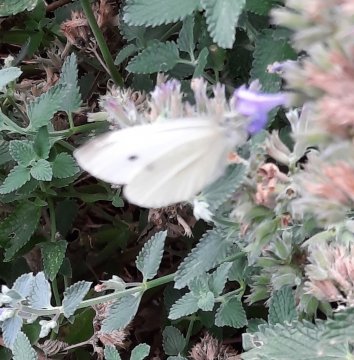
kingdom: Animalia
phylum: Arthropoda
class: Insecta
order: Lepidoptera
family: Pieridae
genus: Pieris
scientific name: Pieris rapae
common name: Cabbage White
